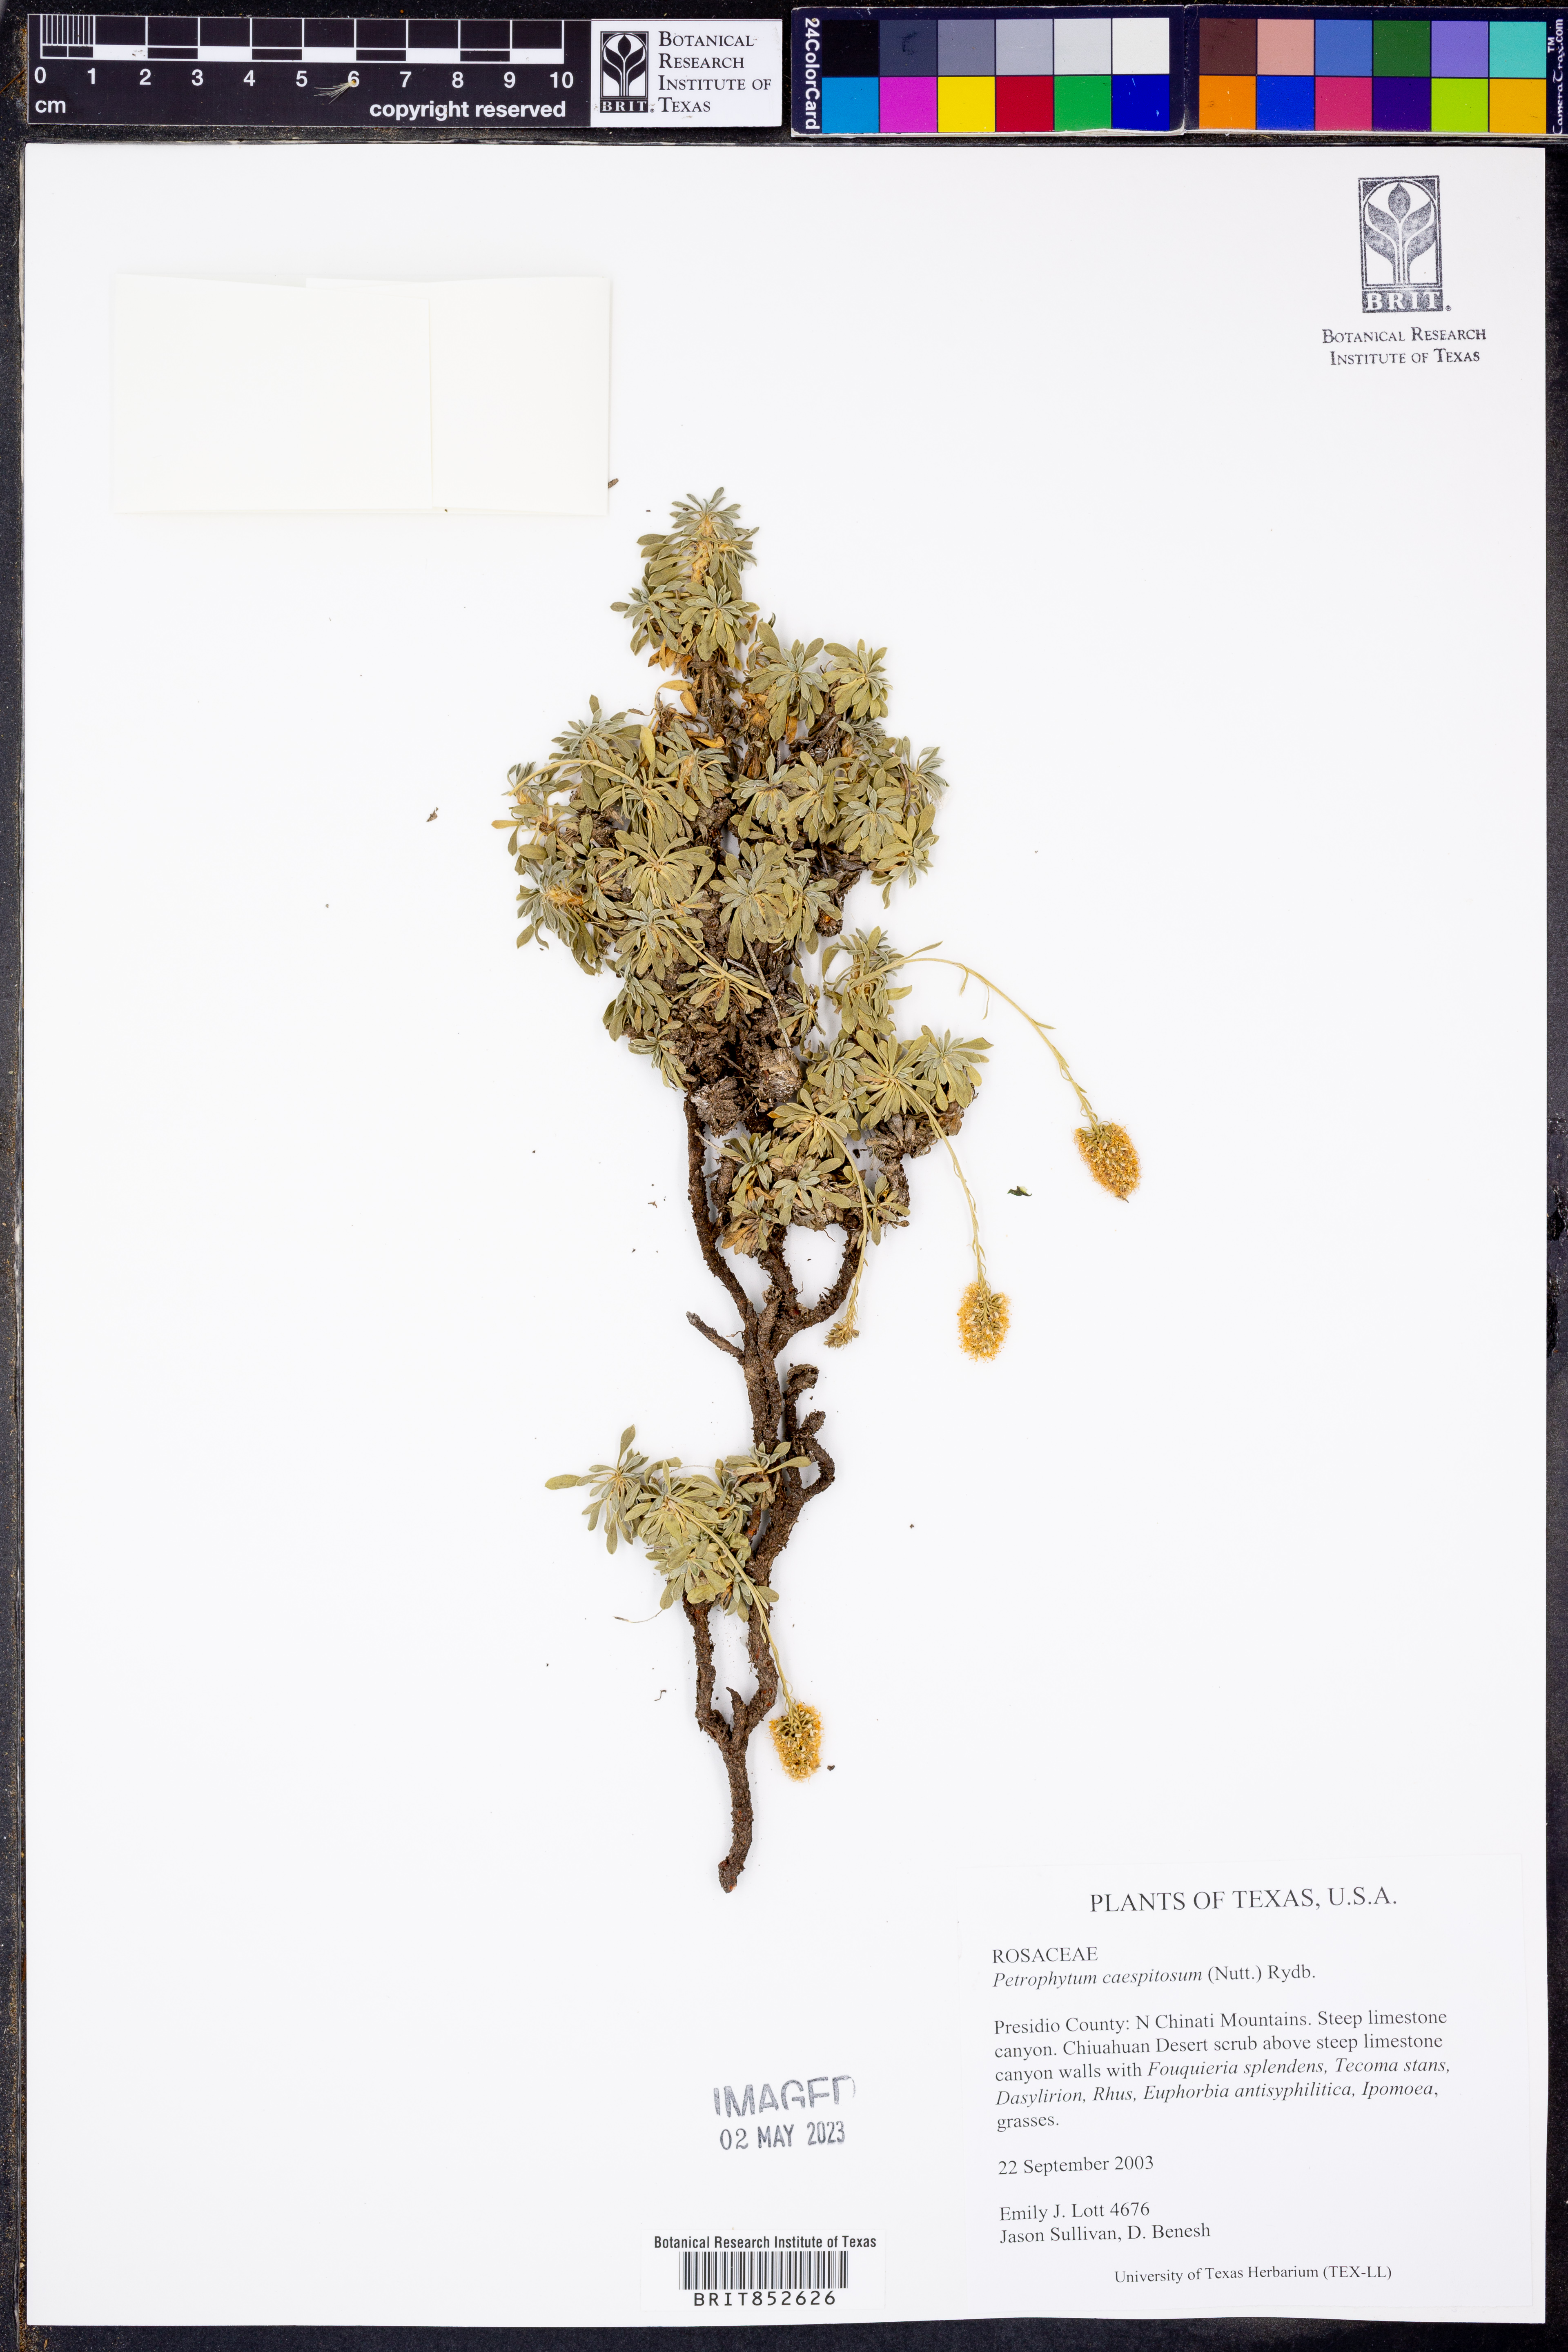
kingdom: Plantae
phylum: Tracheophyta
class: Magnoliopsida
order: Rosales
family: Rosaceae
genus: Petrophytum
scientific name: Petrophytum caespitosum
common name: Mat rockspirea
